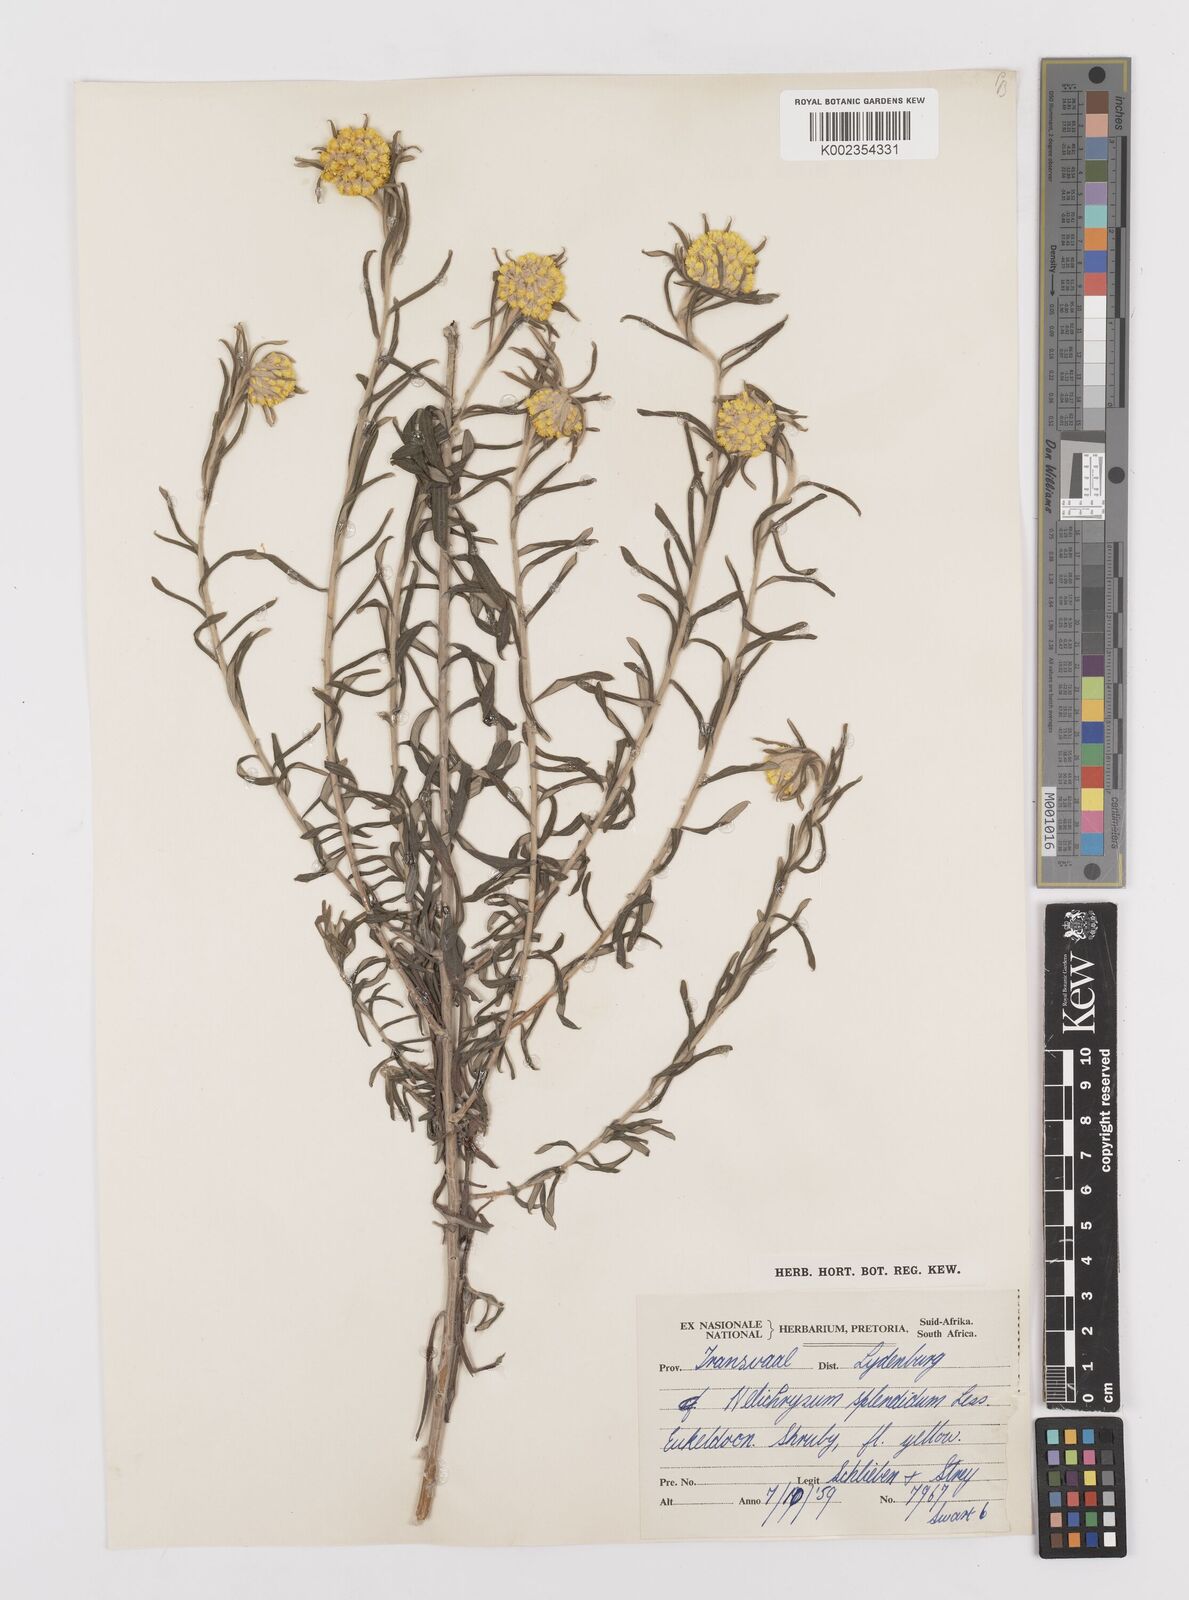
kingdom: Plantae
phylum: Tracheophyta
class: Magnoliopsida
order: Asterales
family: Asteraceae
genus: Helichrysum
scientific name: Helichrysum splendidum
